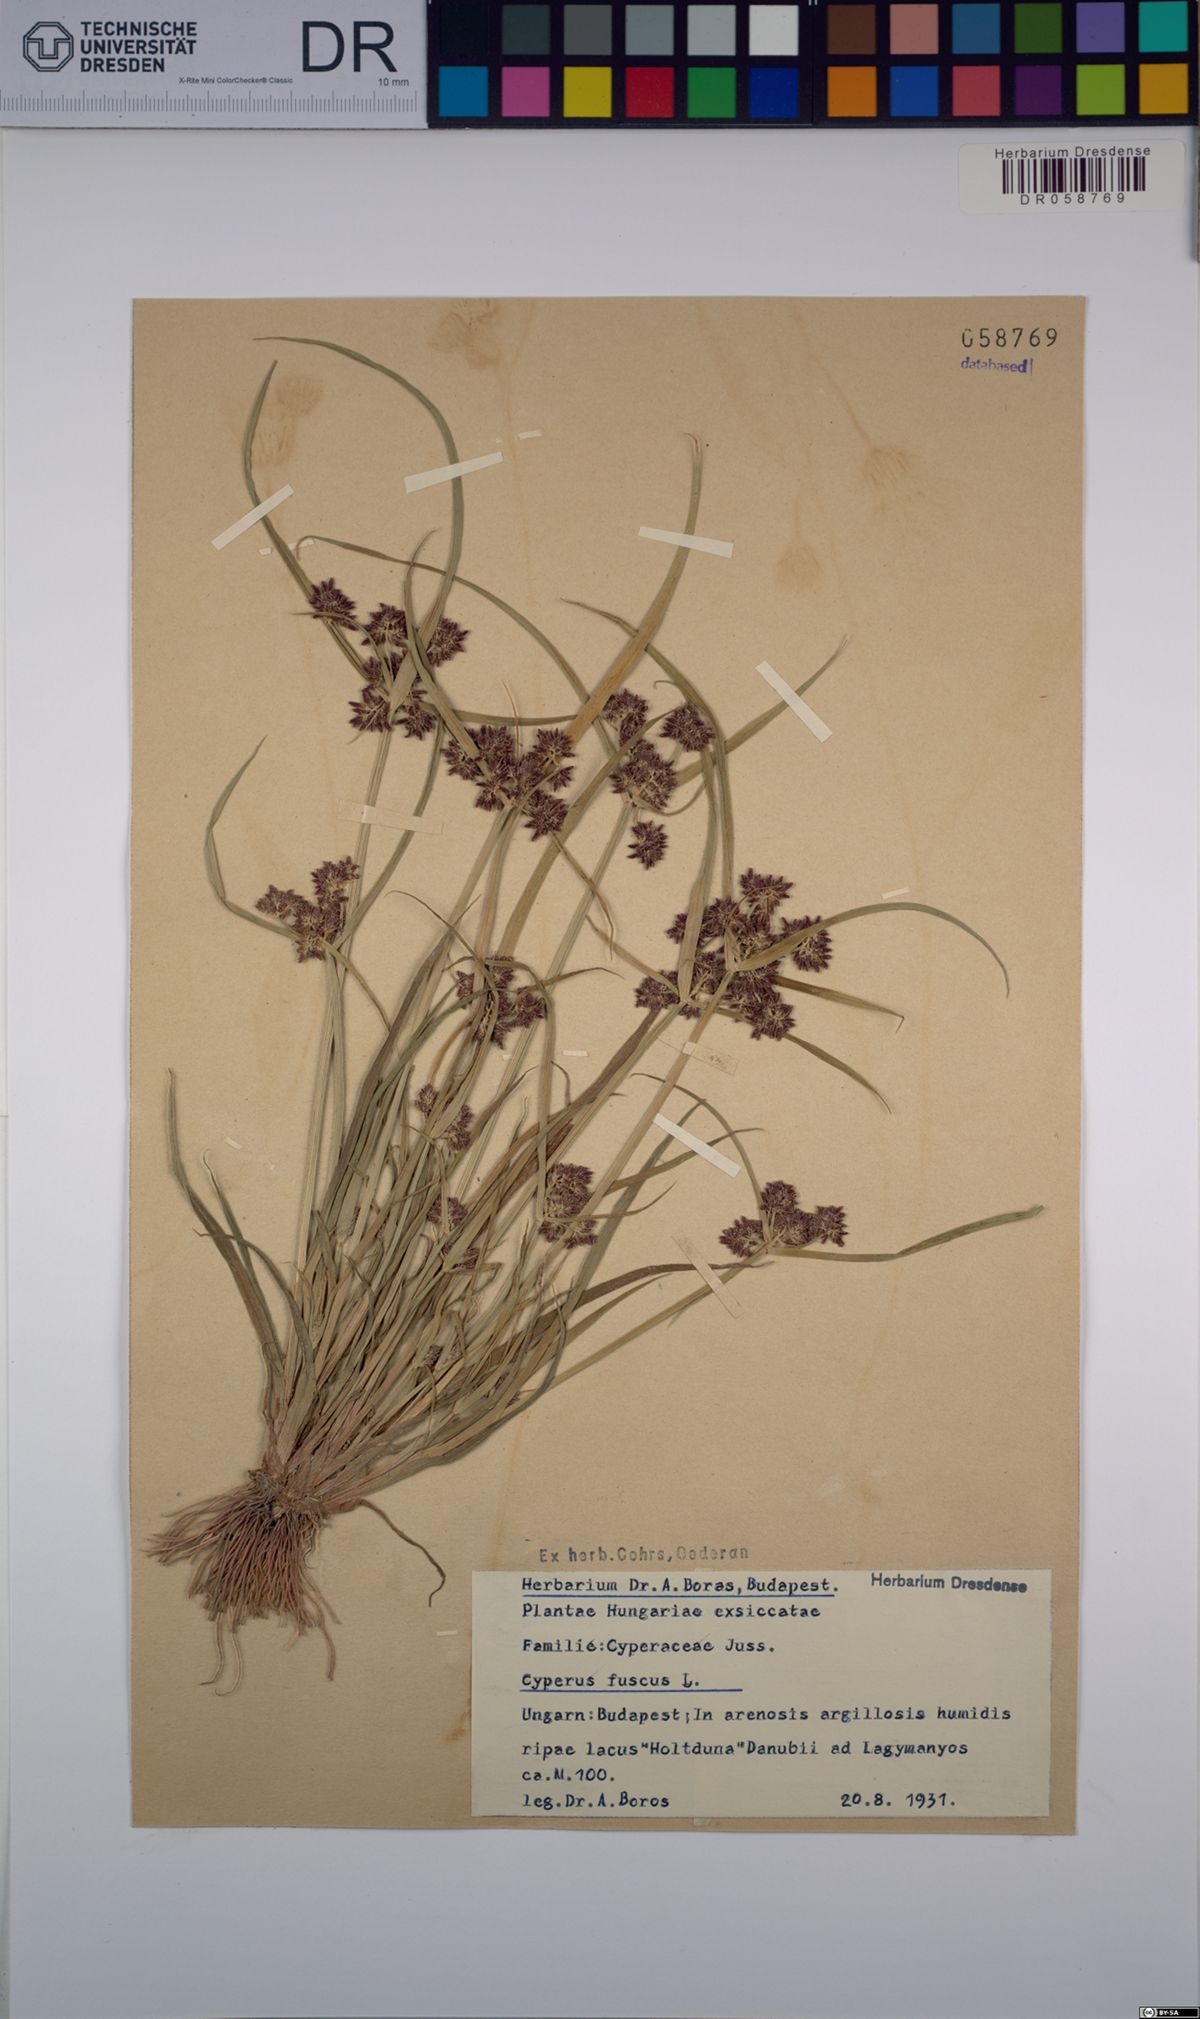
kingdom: Plantae
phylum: Tracheophyta
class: Liliopsida
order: Poales
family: Cyperaceae
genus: Cyperus
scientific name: Cyperus fuscus
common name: Brown galingale
